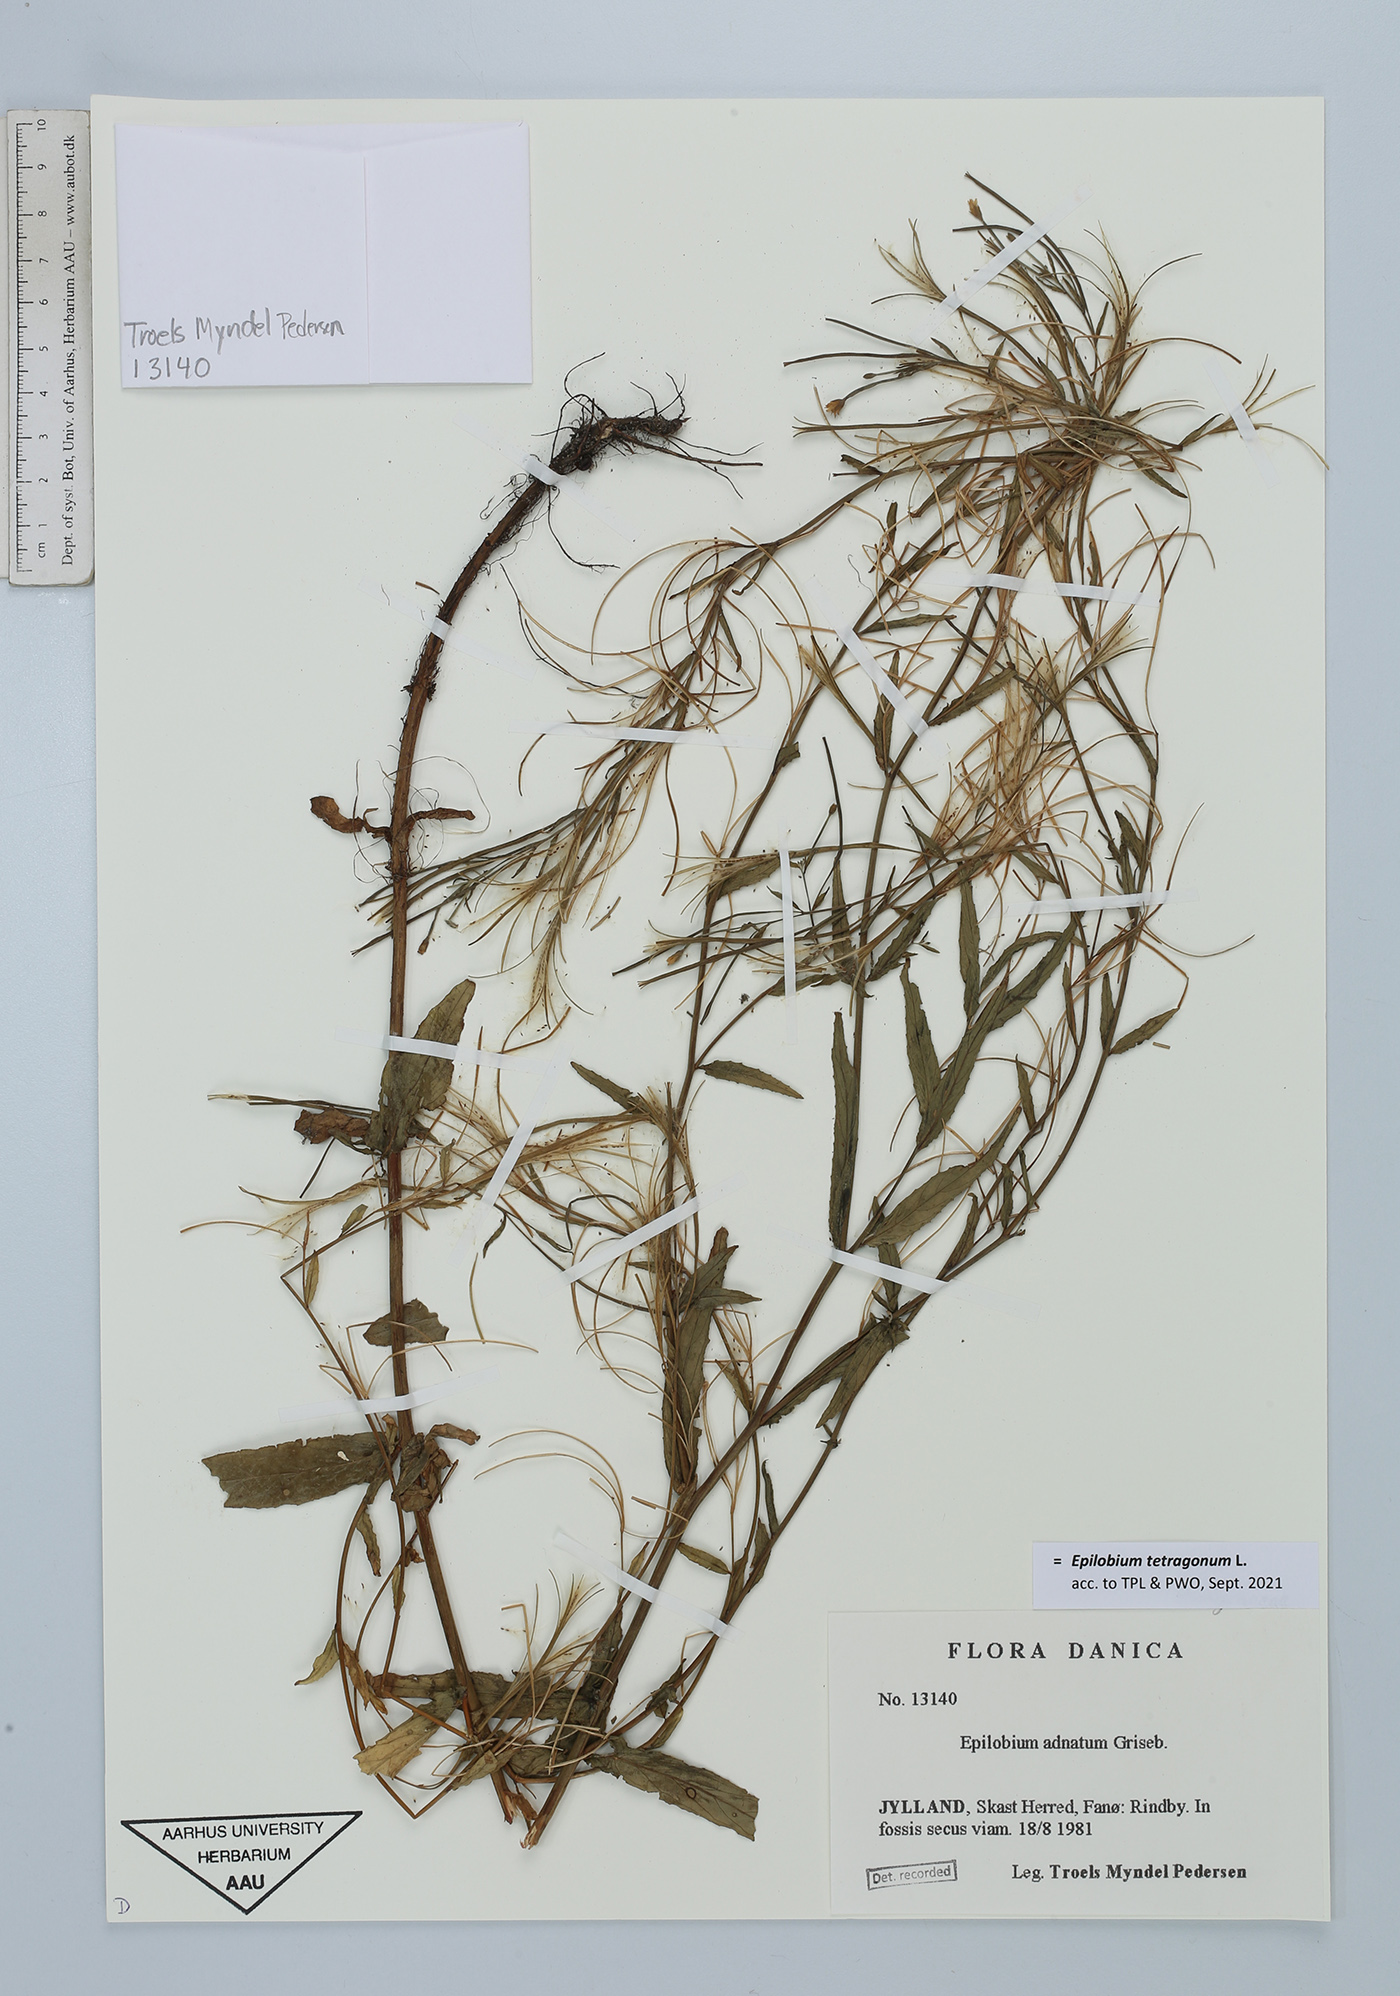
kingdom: Plantae
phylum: Tracheophyta
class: Magnoliopsida
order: Myrtales
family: Onagraceae
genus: Epilobium
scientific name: Epilobium tetragonum
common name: Square-stemmed willowherb
